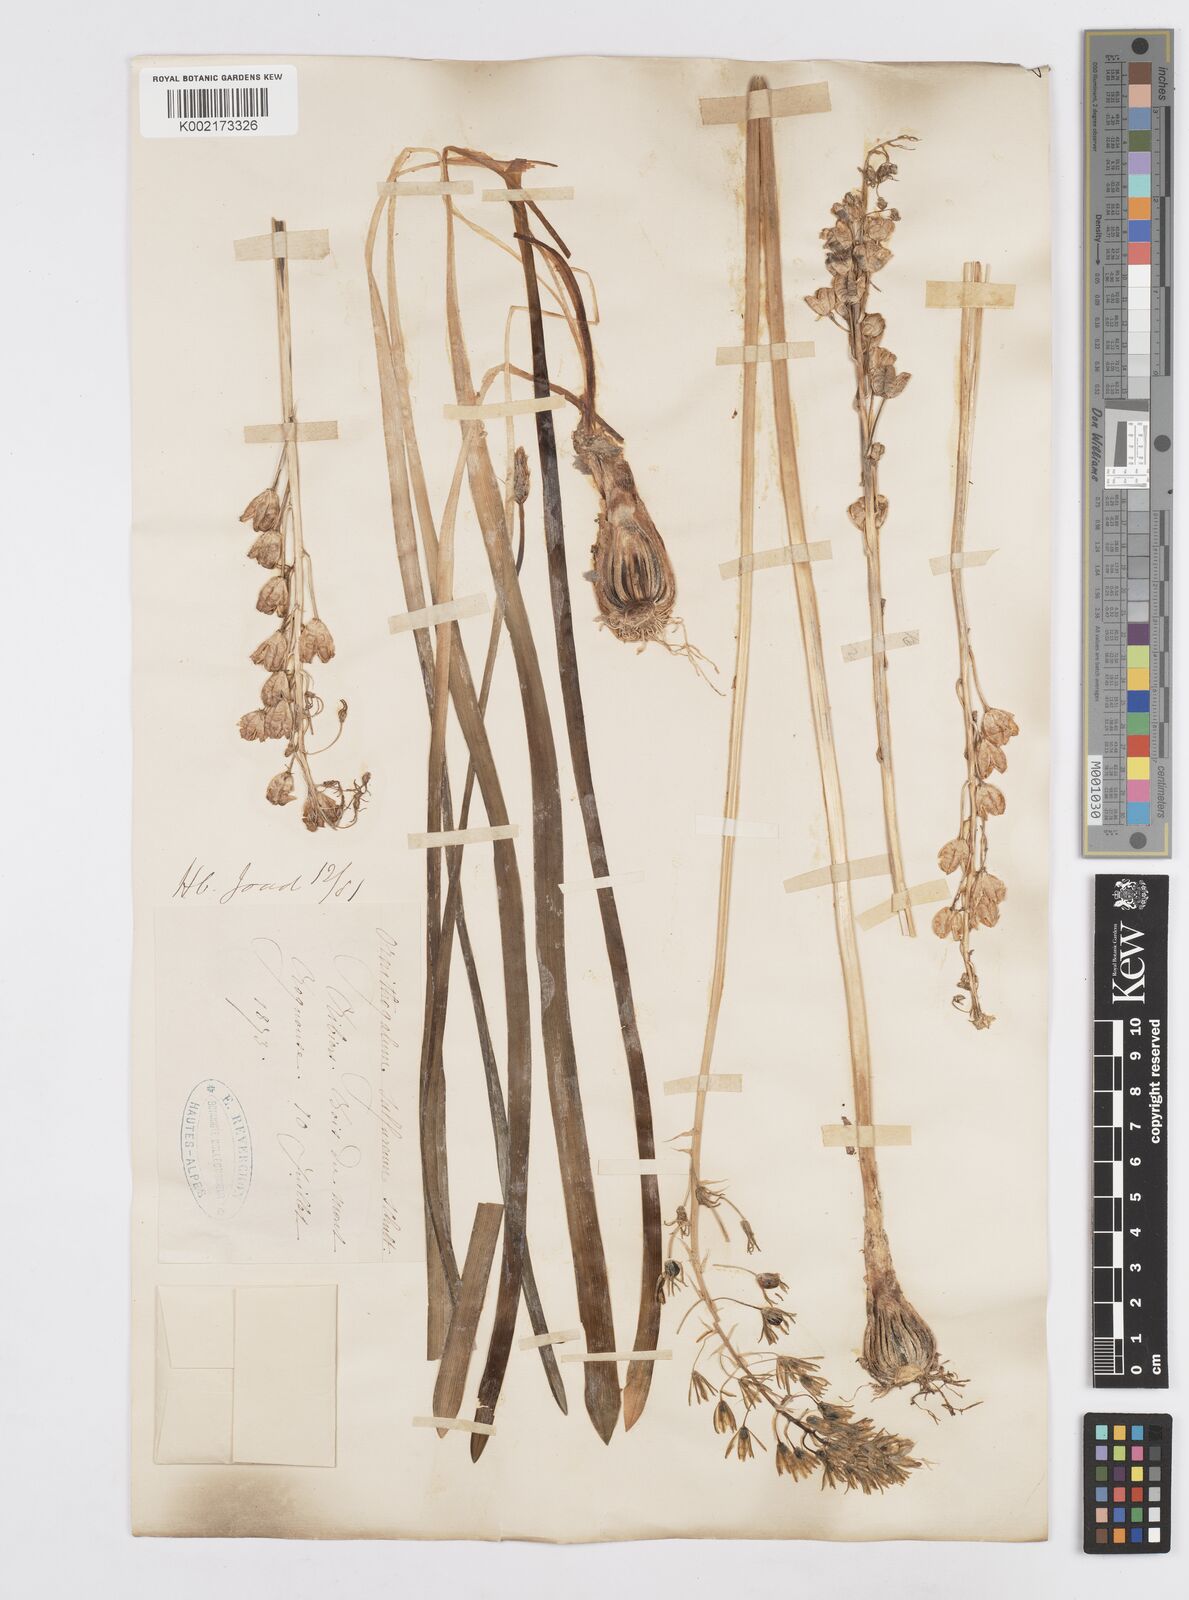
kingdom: Plantae
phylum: Tracheophyta
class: Liliopsida
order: Asparagales
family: Asparagaceae
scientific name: Asparagaceae
